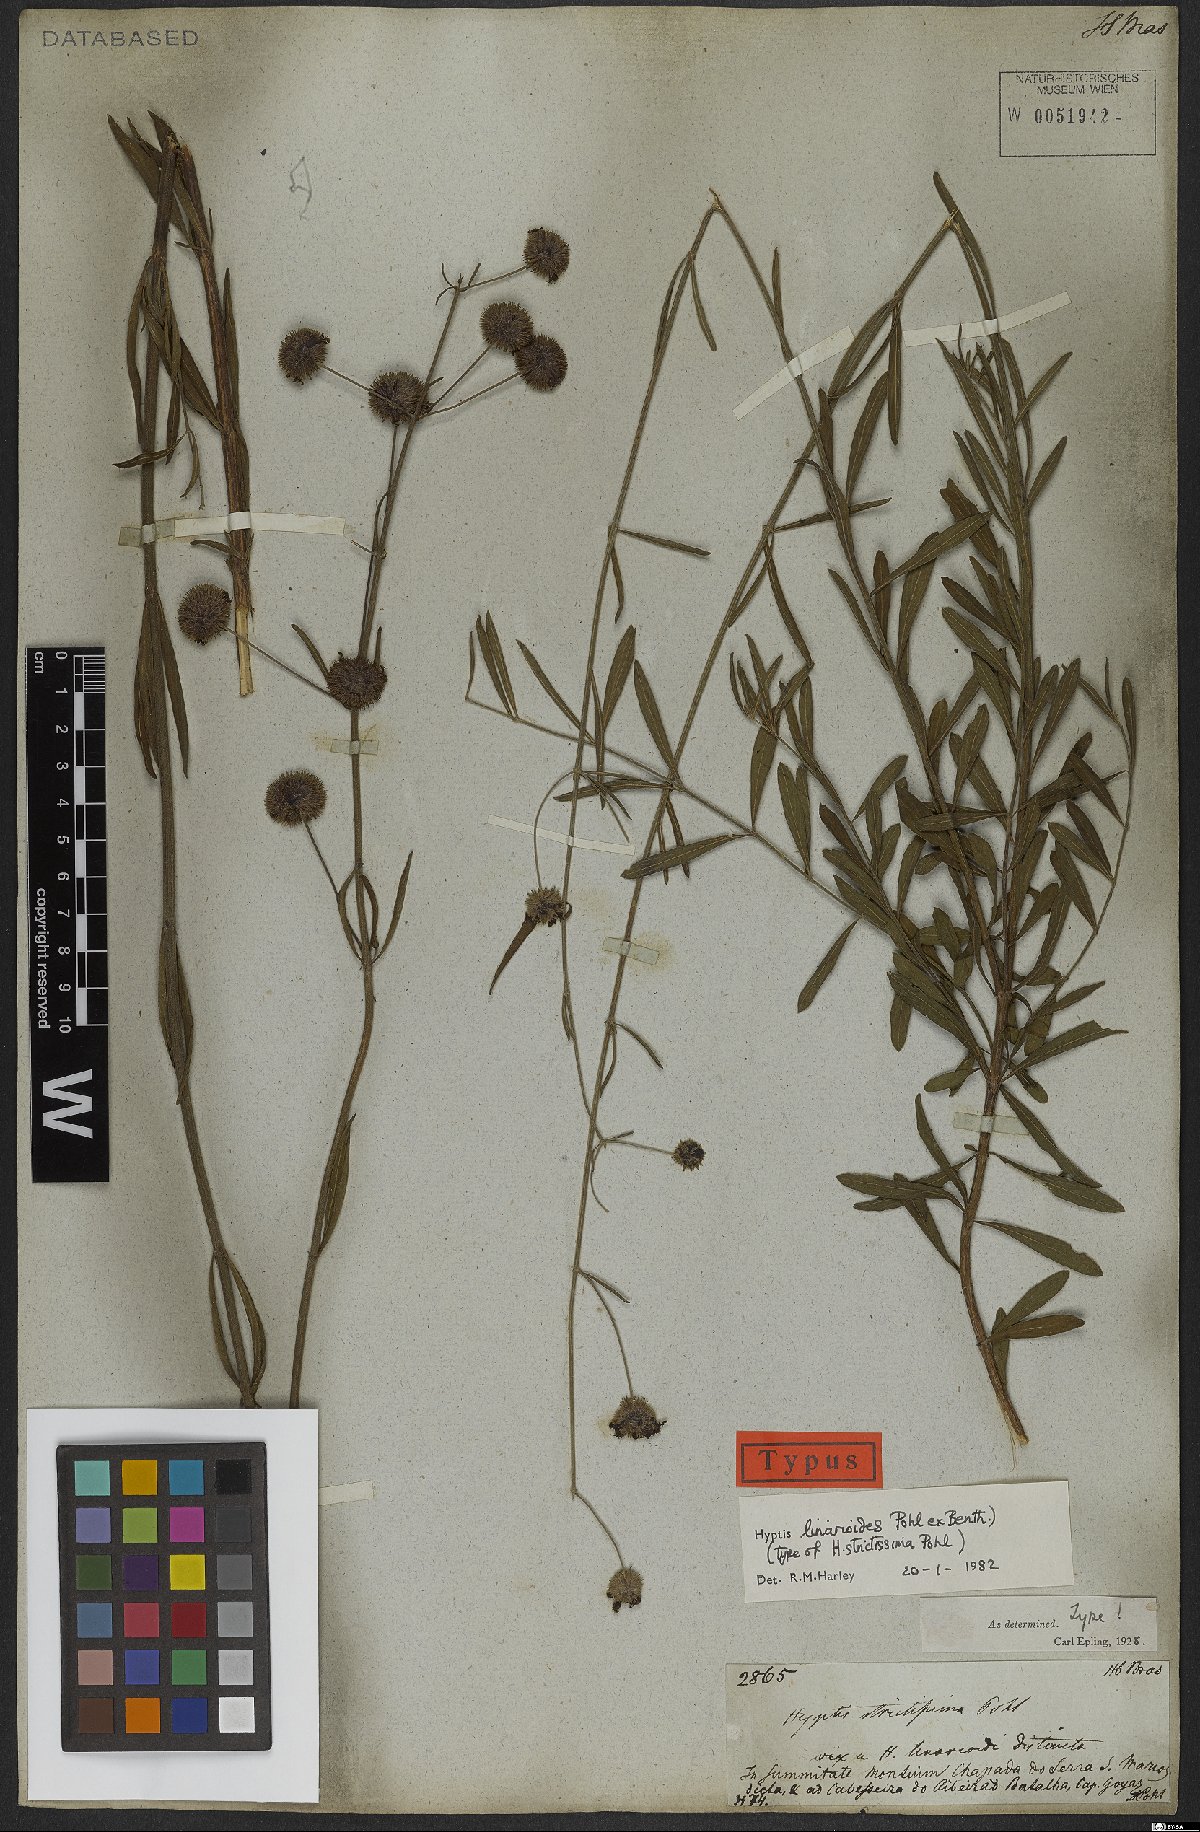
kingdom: Plantae
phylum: Tracheophyta
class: Magnoliopsida
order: Lamiales
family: Lamiaceae
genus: Hyptis
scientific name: Hyptis linarioides
